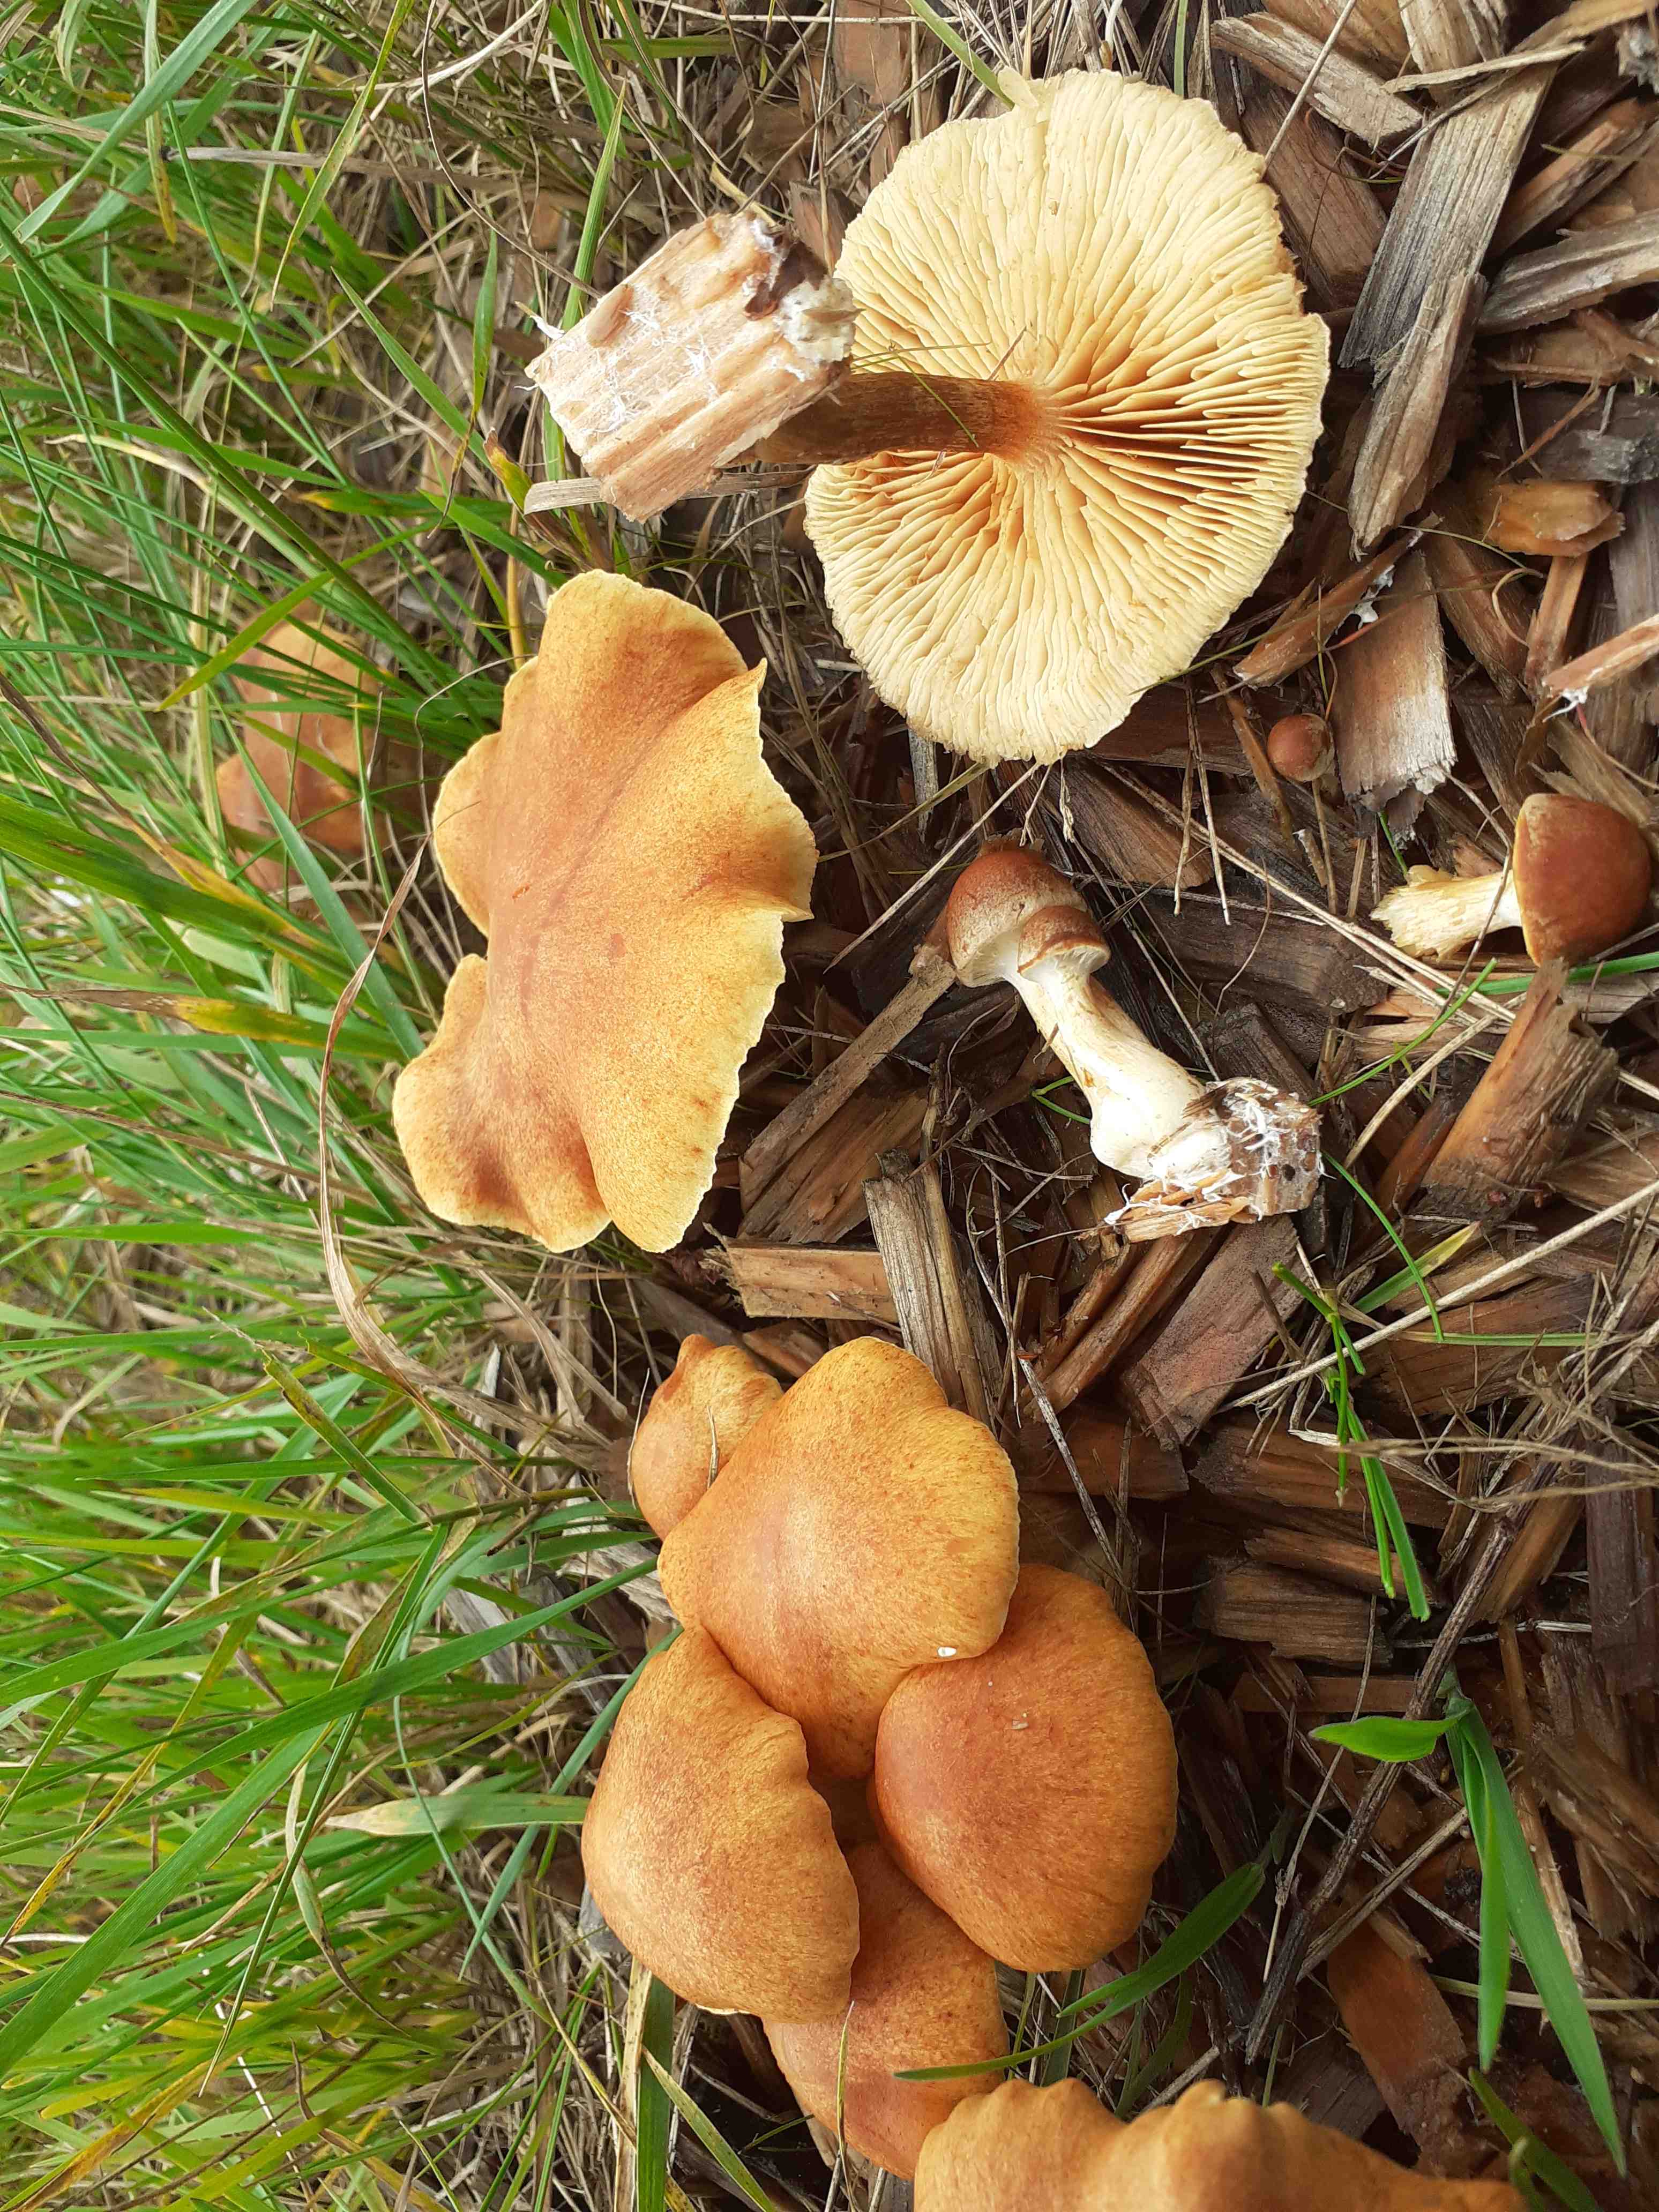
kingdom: Fungi
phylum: Basidiomycota
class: Agaricomycetes
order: Agaricales
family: Hymenogastraceae
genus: Gymnopilus
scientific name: Gymnopilus penetrans
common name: plettet flammehat
